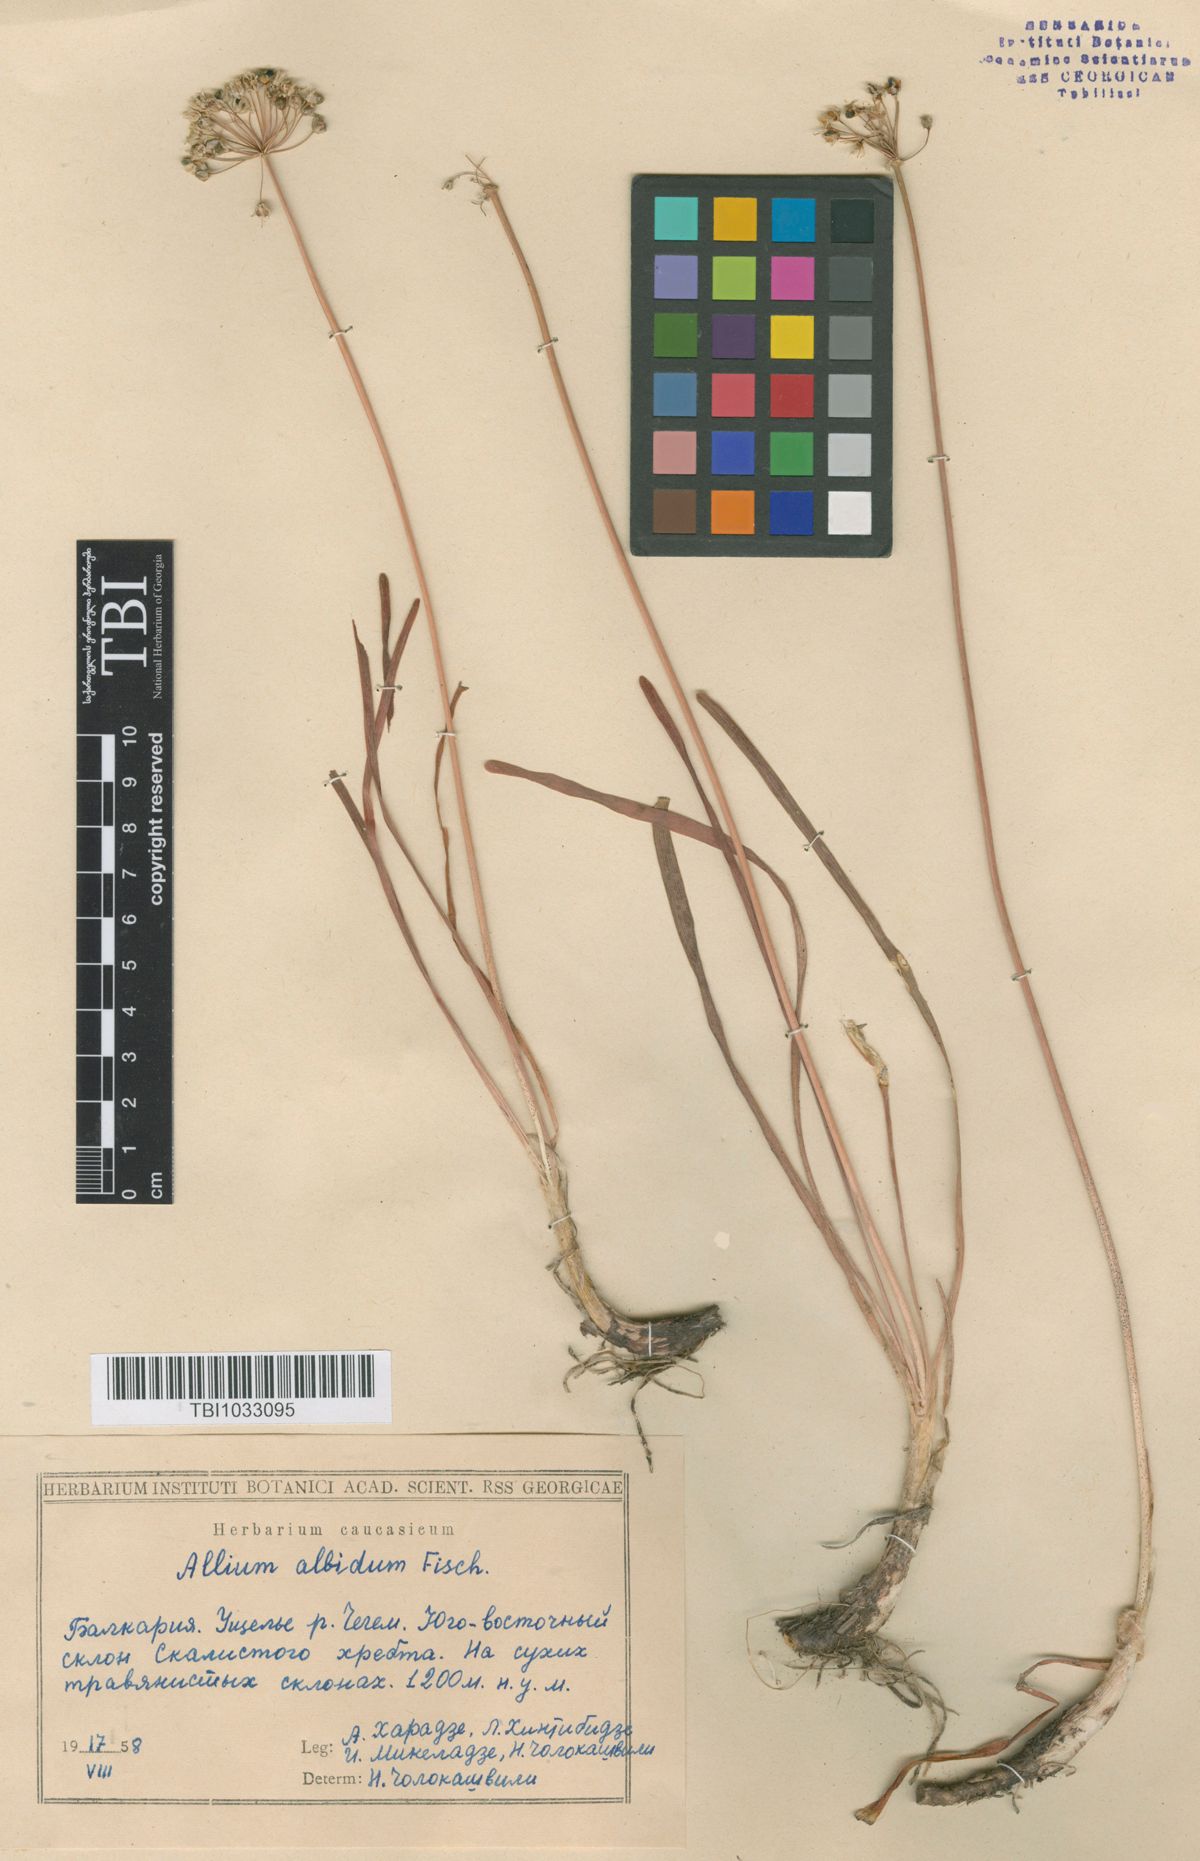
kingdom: Plantae
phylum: Tracheophyta
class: Liliopsida
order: Asparagales
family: Amaryllidaceae
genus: Allium
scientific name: Allium denudatum
